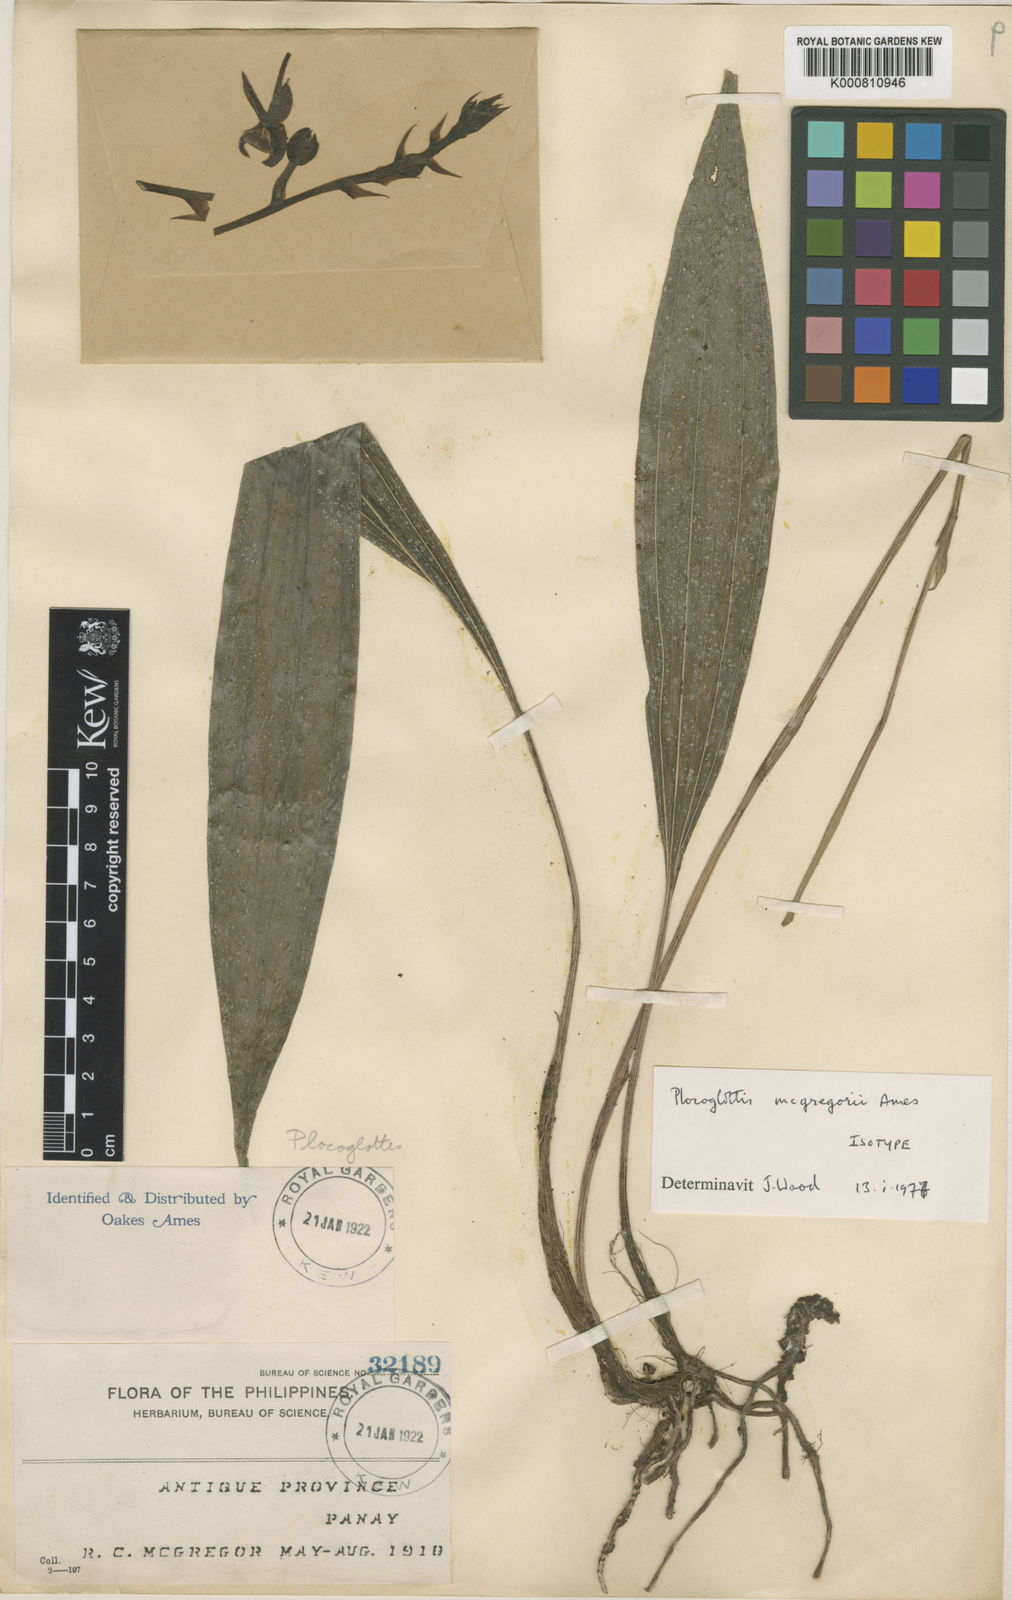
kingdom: Plantae
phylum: Tracheophyta
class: Liliopsida
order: Asparagales
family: Orchidaceae
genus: Plocoglottis
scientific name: Plocoglottis mindorensis
